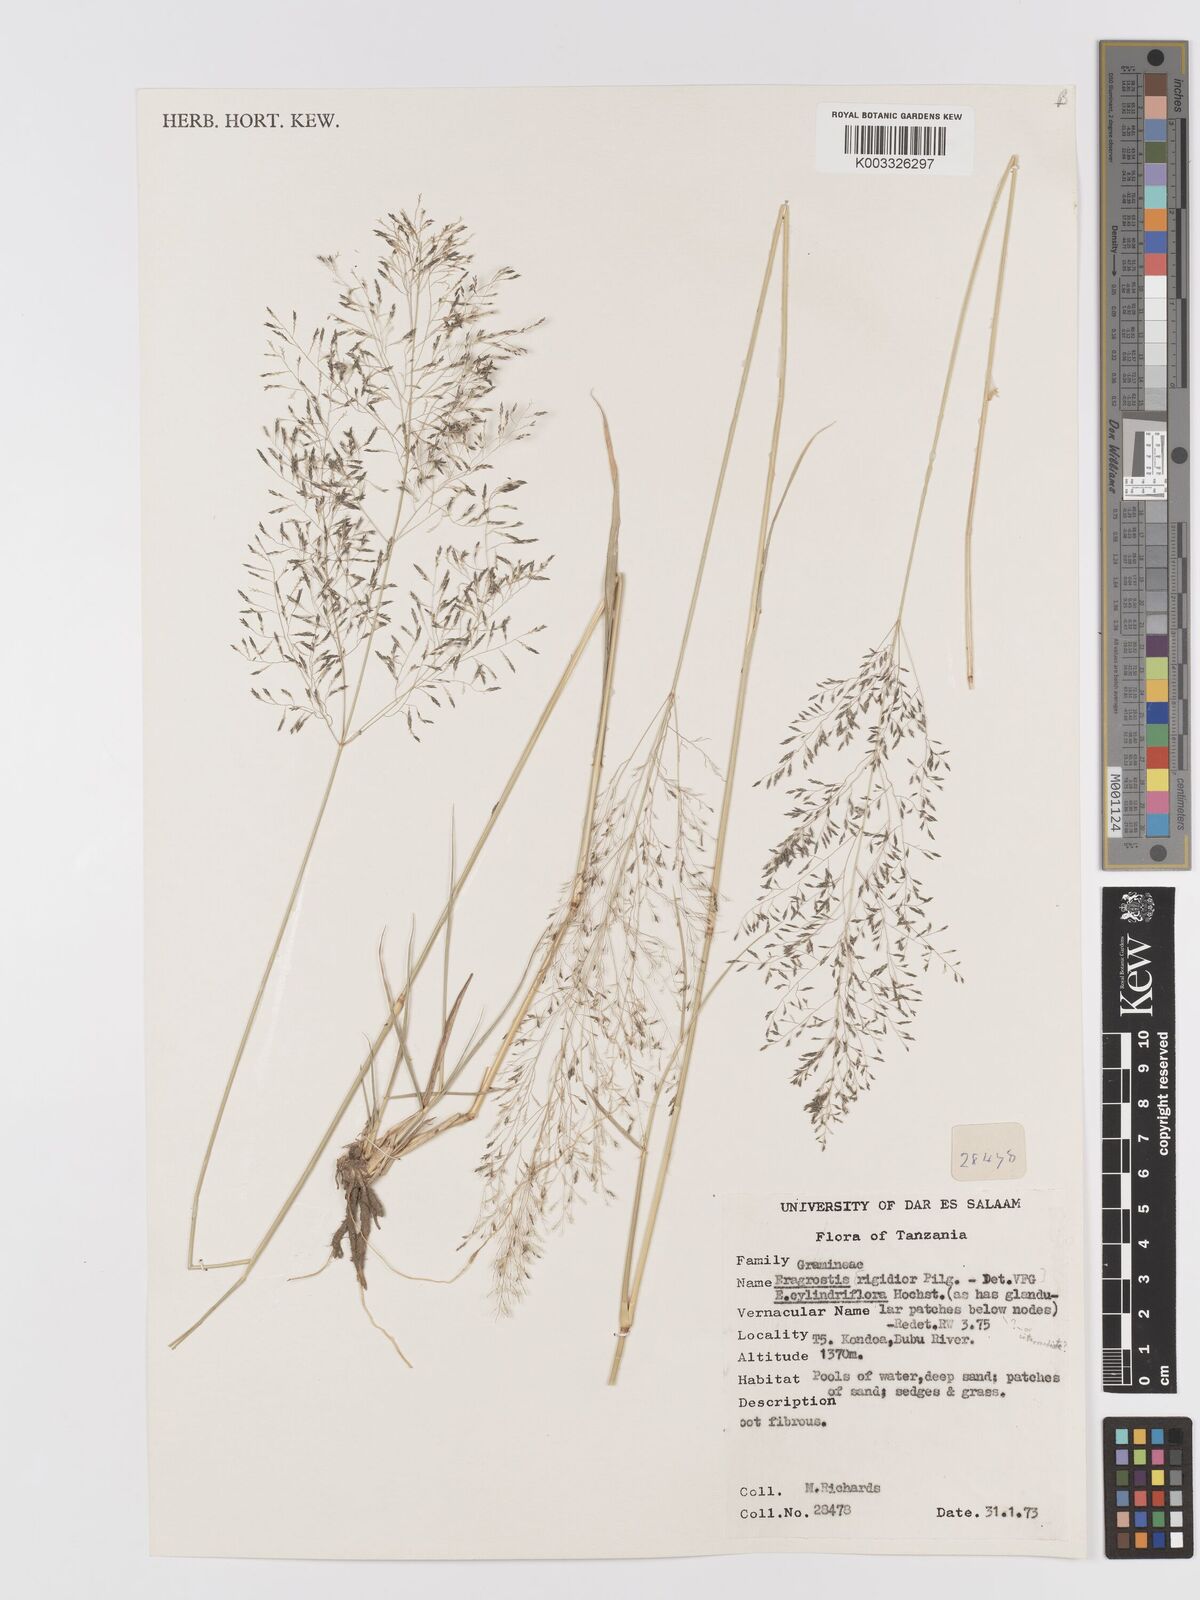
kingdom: Plantae
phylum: Tracheophyta
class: Liliopsida
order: Poales
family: Poaceae
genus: Eragrostis
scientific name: Eragrostis cylindriflora
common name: Cylinderflower lovegrass
